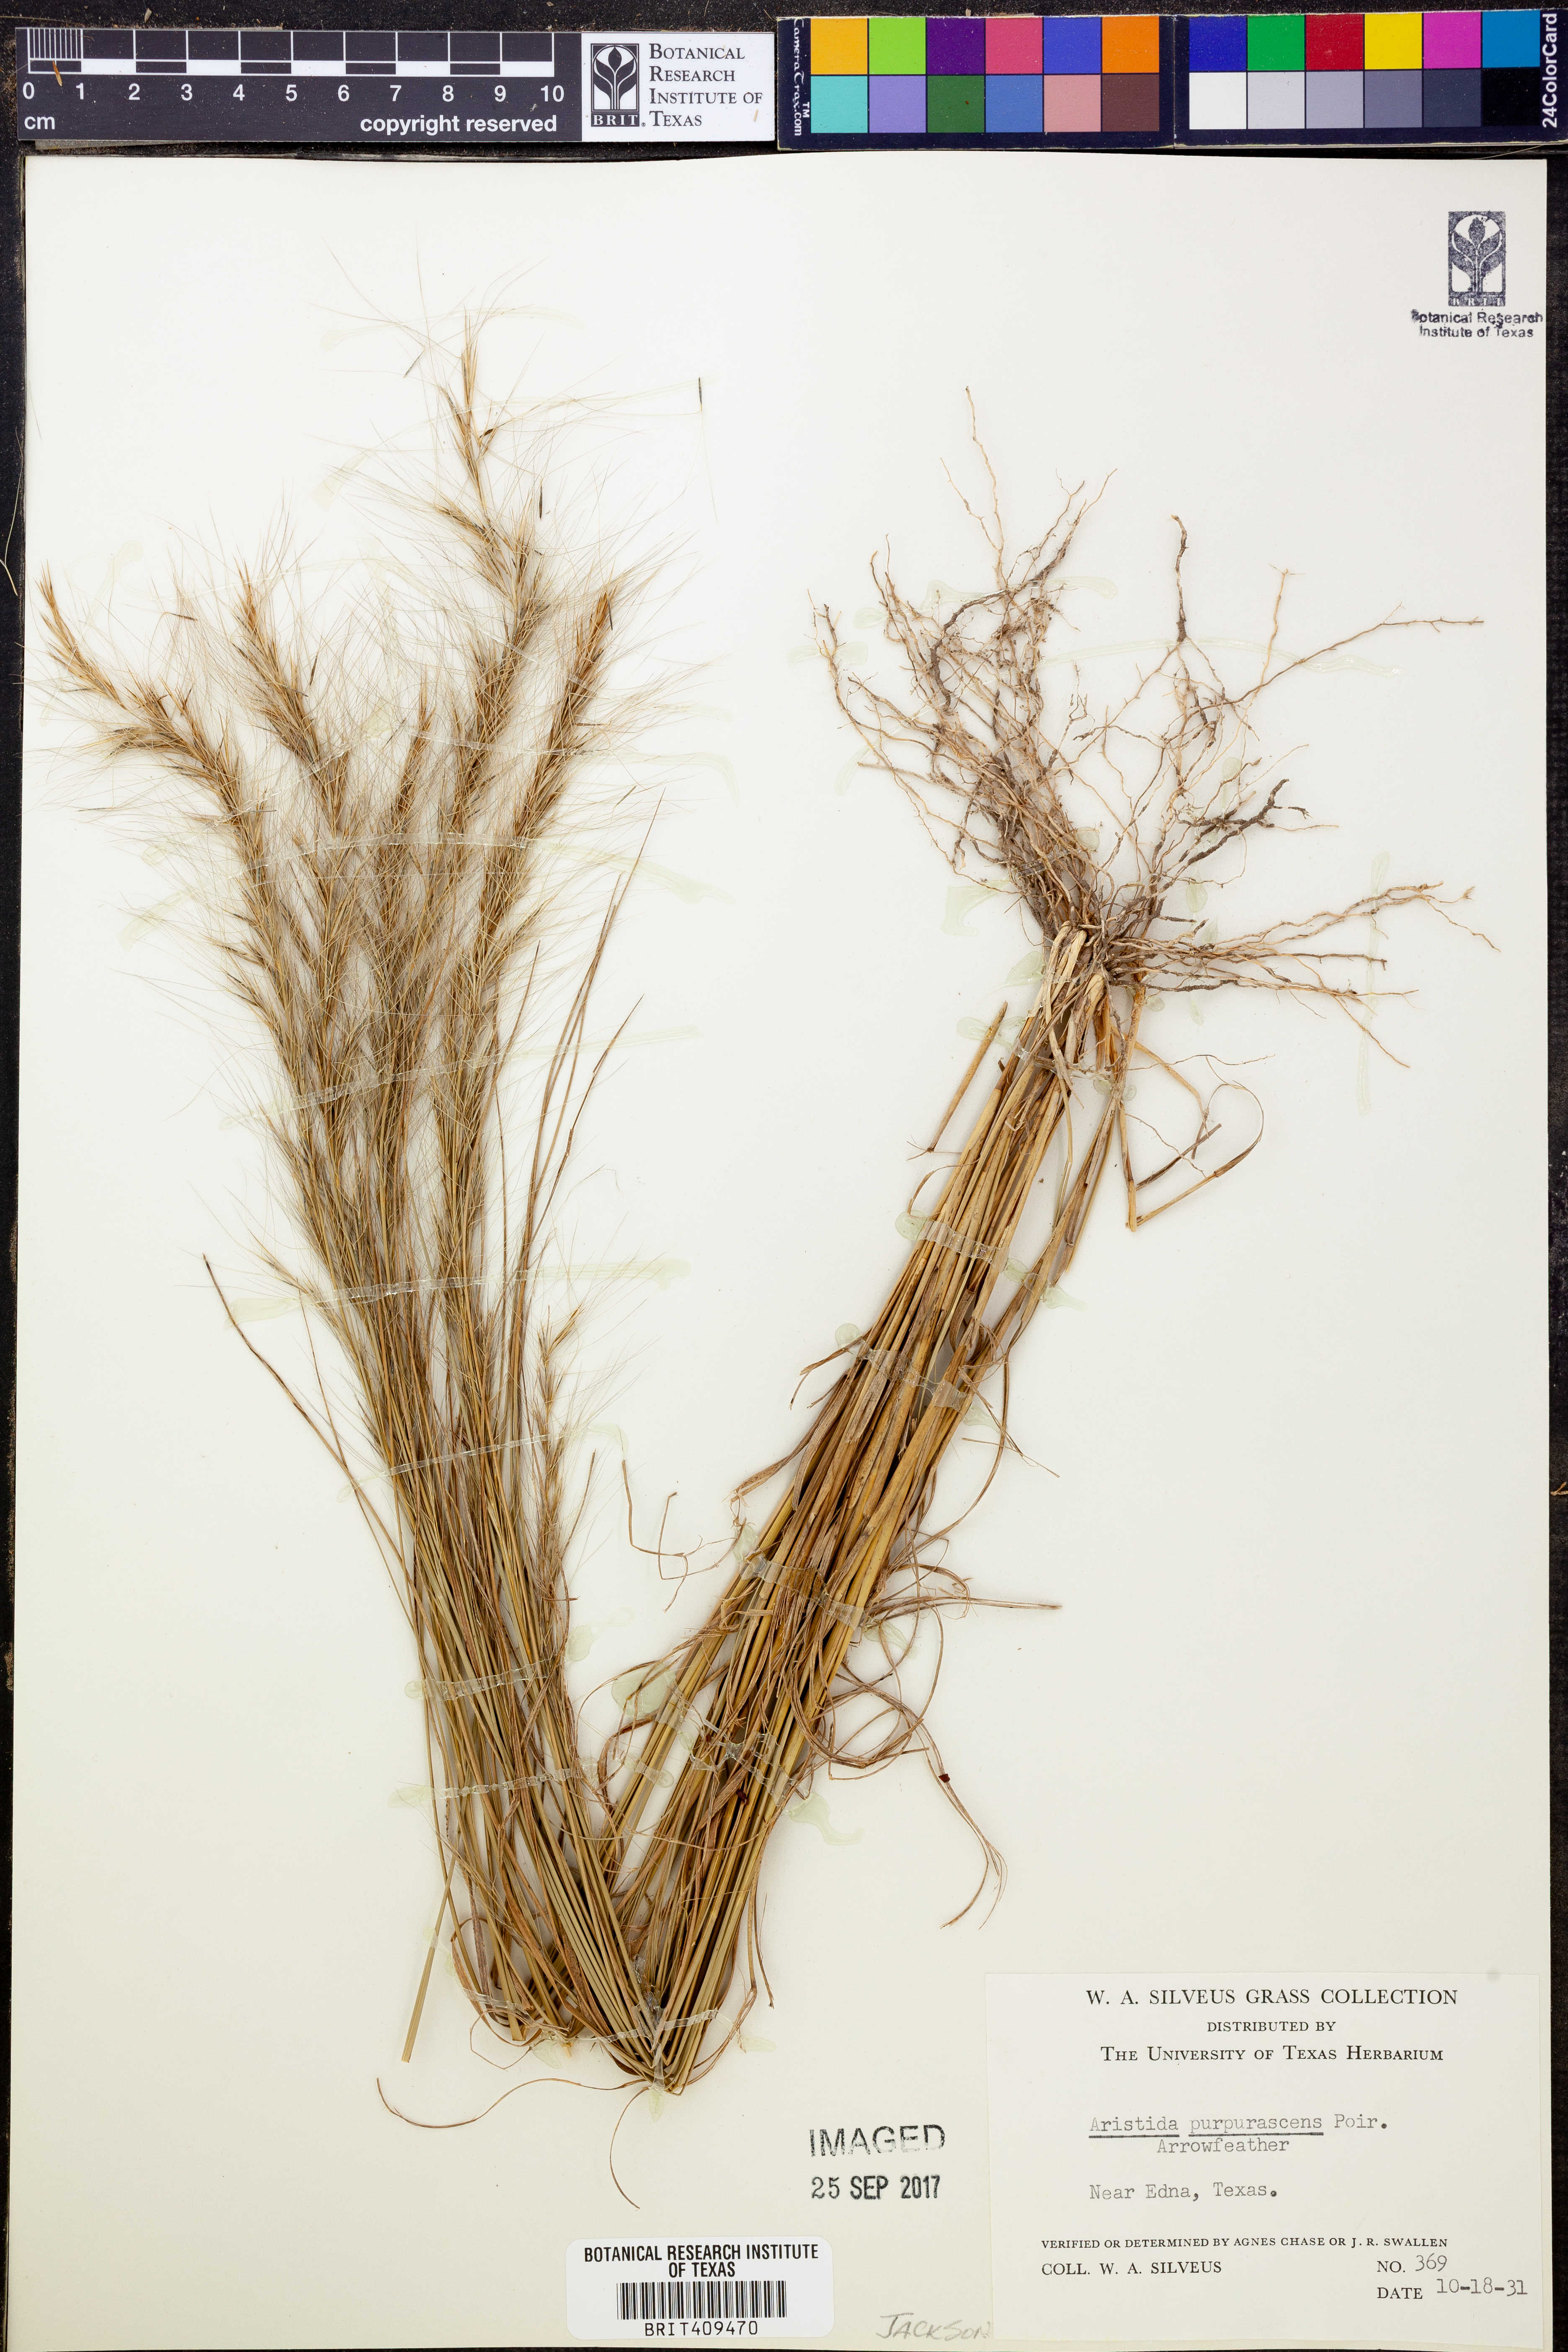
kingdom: Plantae
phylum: Tracheophyta
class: Liliopsida
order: Poales
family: Poaceae
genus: Aristida
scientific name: Aristida purpurascens
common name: Arrow-feather
